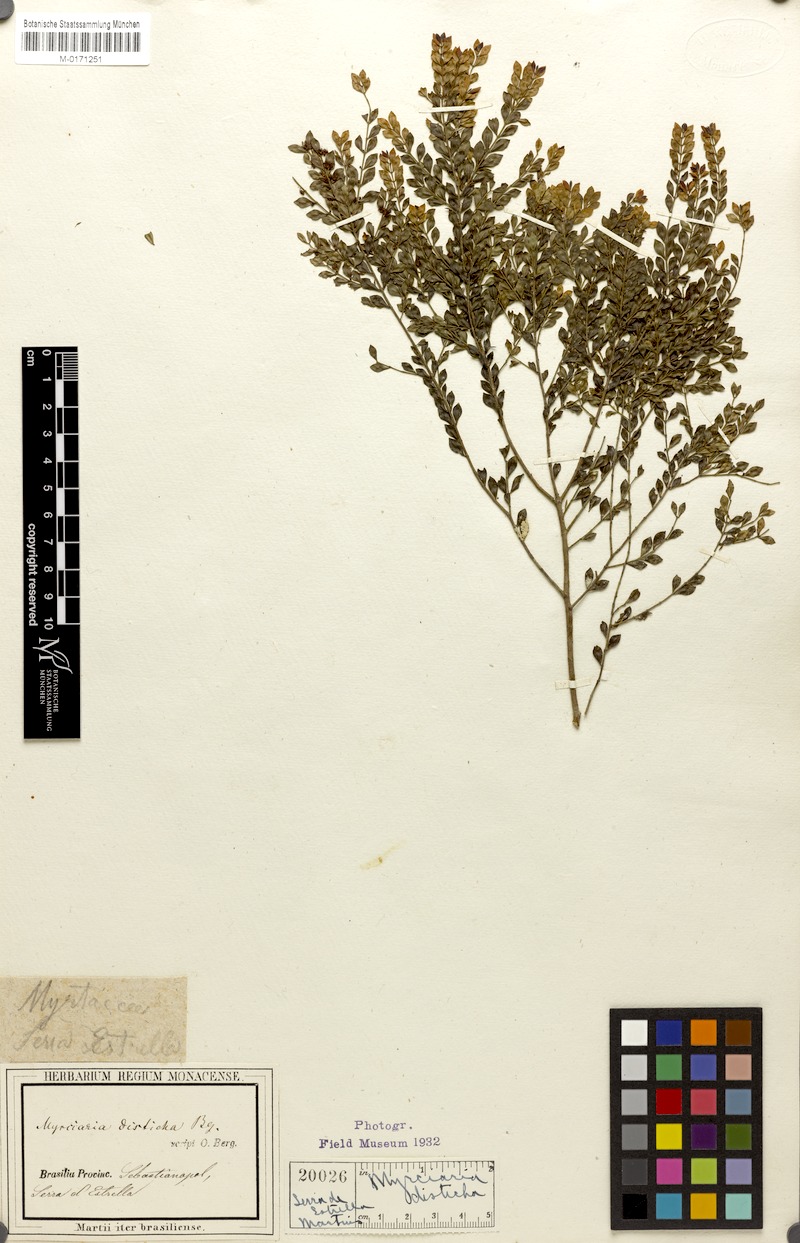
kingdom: Plantae
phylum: Tracheophyta
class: Magnoliopsida
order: Myrtales
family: Myrtaceae
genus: Myrciaria
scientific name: Myrciaria disticha
